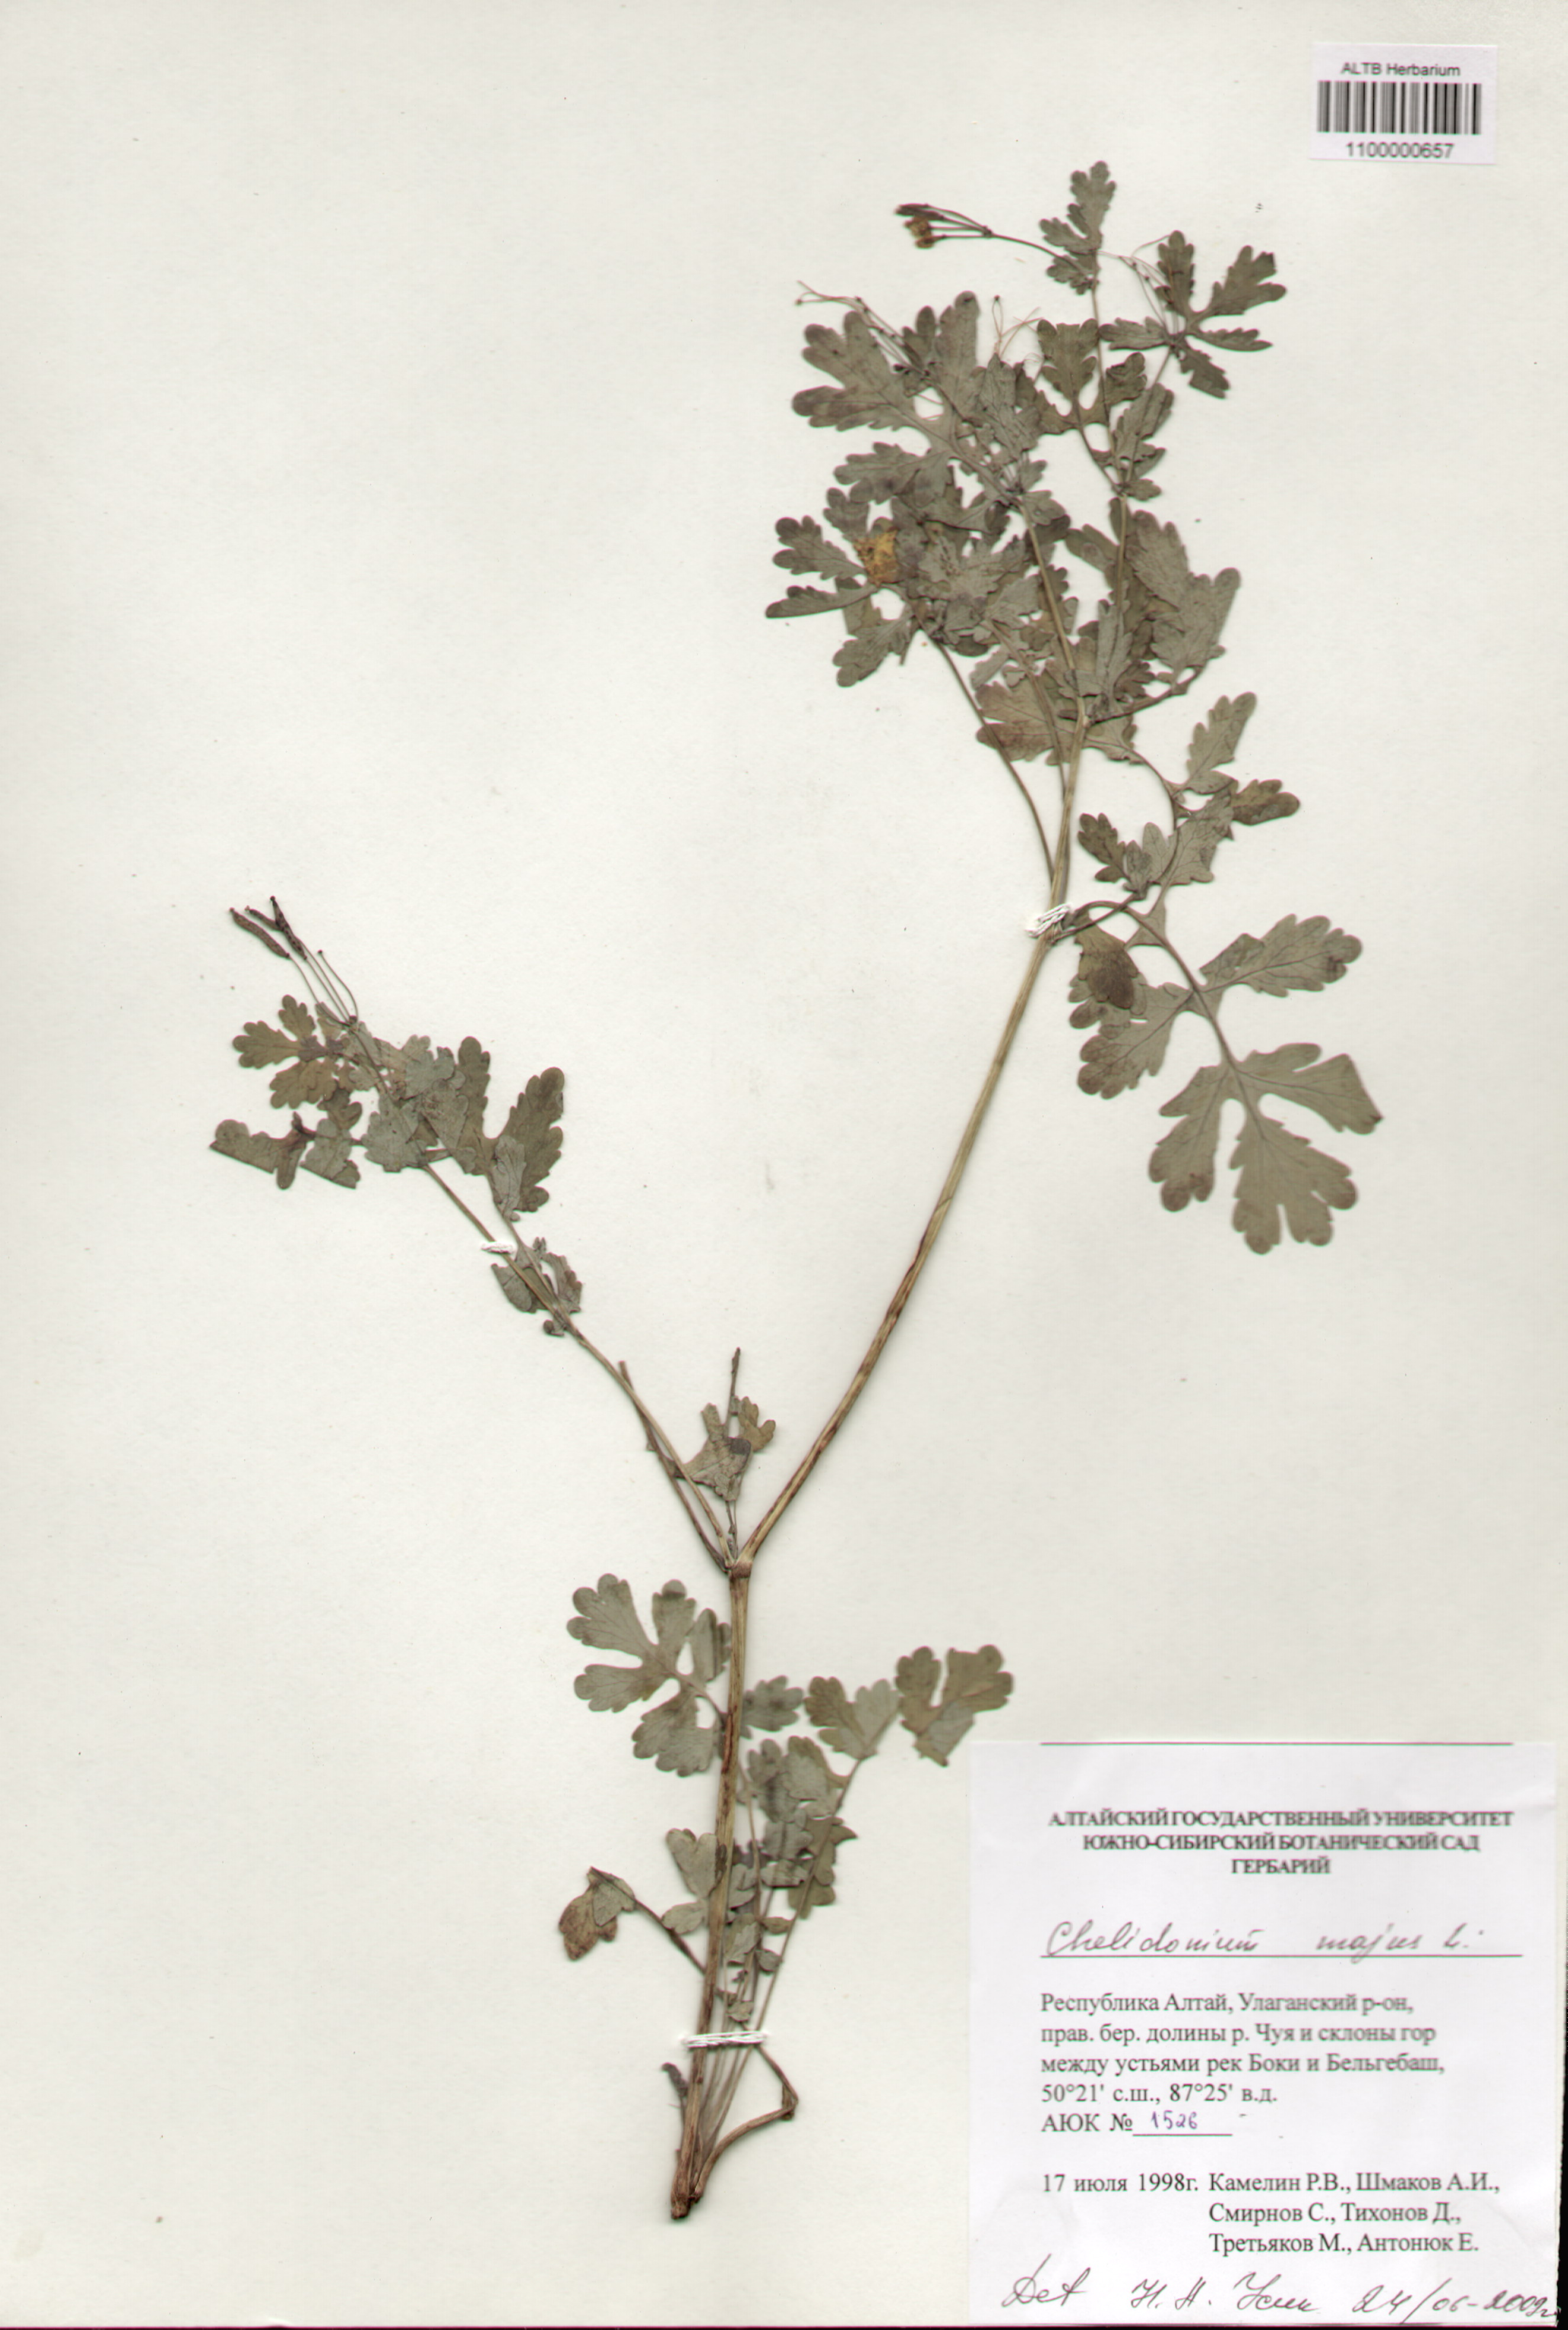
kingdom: Plantae
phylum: Tracheophyta
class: Magnoliopsida
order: Ranunculales
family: Papaveraceae
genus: Chelidonium
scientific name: Chelidonium majus
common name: Greater celandine
